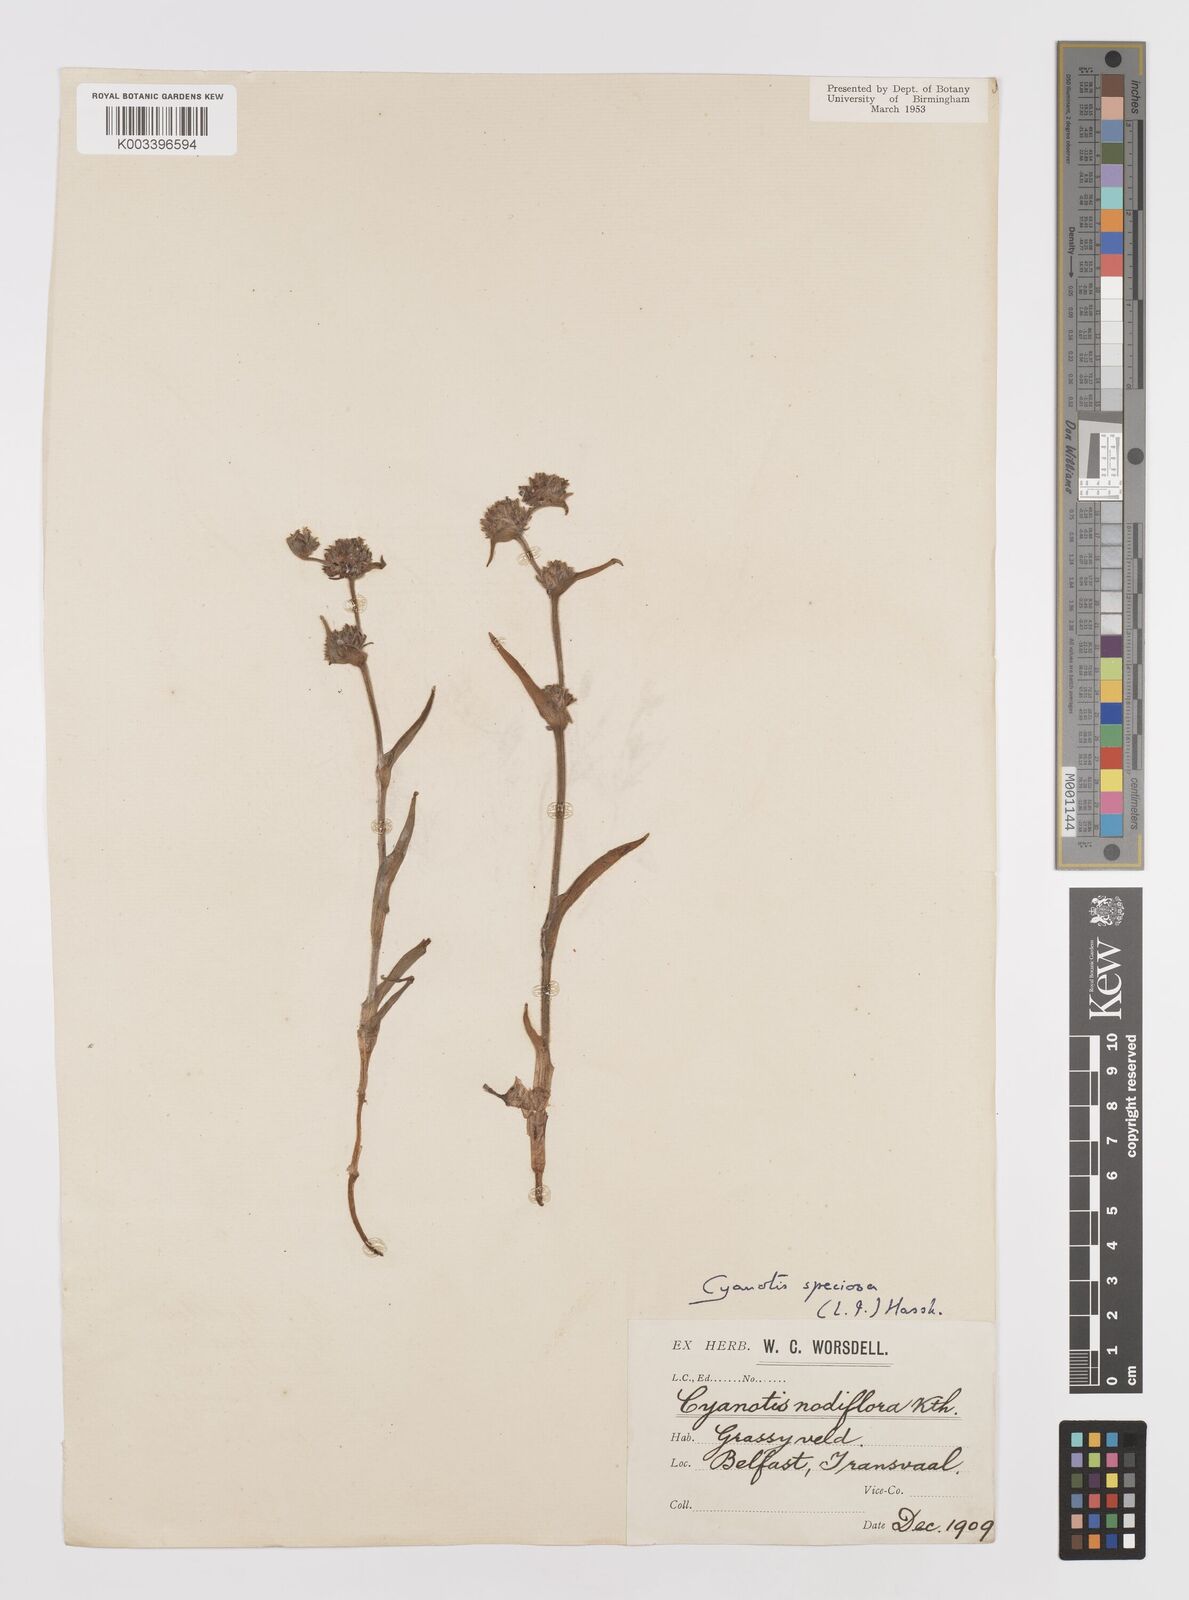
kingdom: Plantae
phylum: Tracheophyta
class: Liliopsida
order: Commelinales
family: Commelinaceae
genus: Cyanotis
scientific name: Cyanotis speciosa
